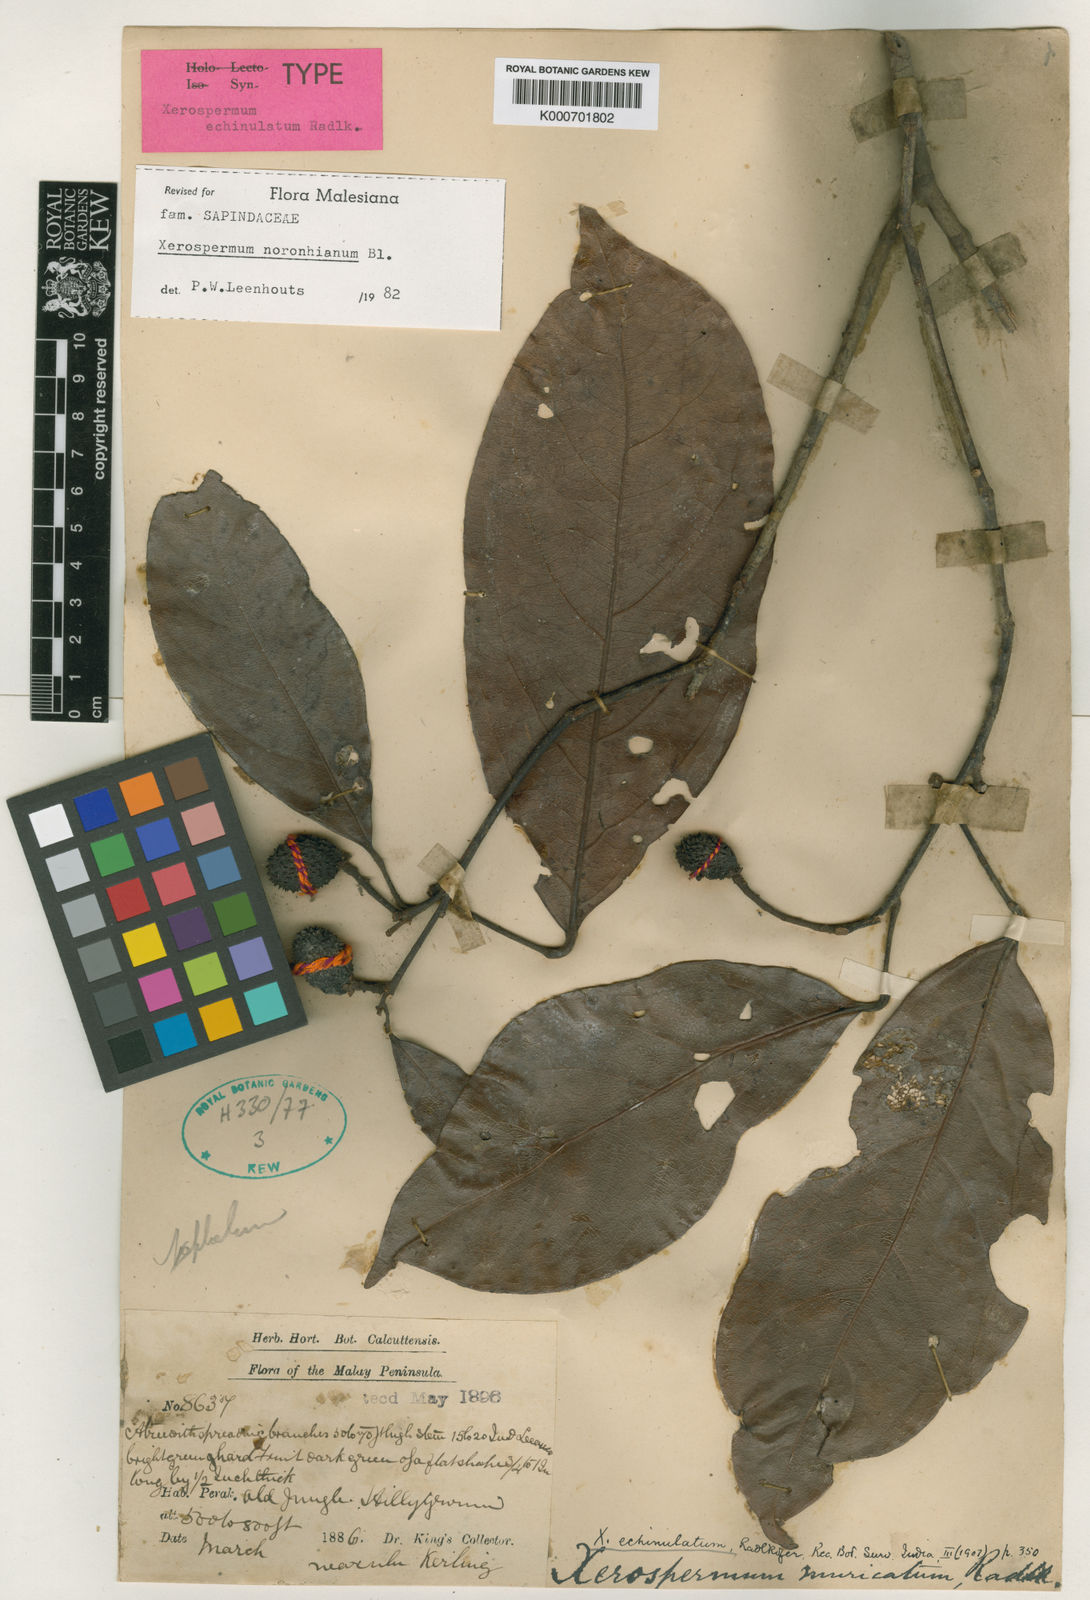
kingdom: Plantae
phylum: Tracheophyta
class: Magnoliopsida
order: Sapindales
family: Sapindaceae
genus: Xerospermum
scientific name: Xerospermum noronhianum
